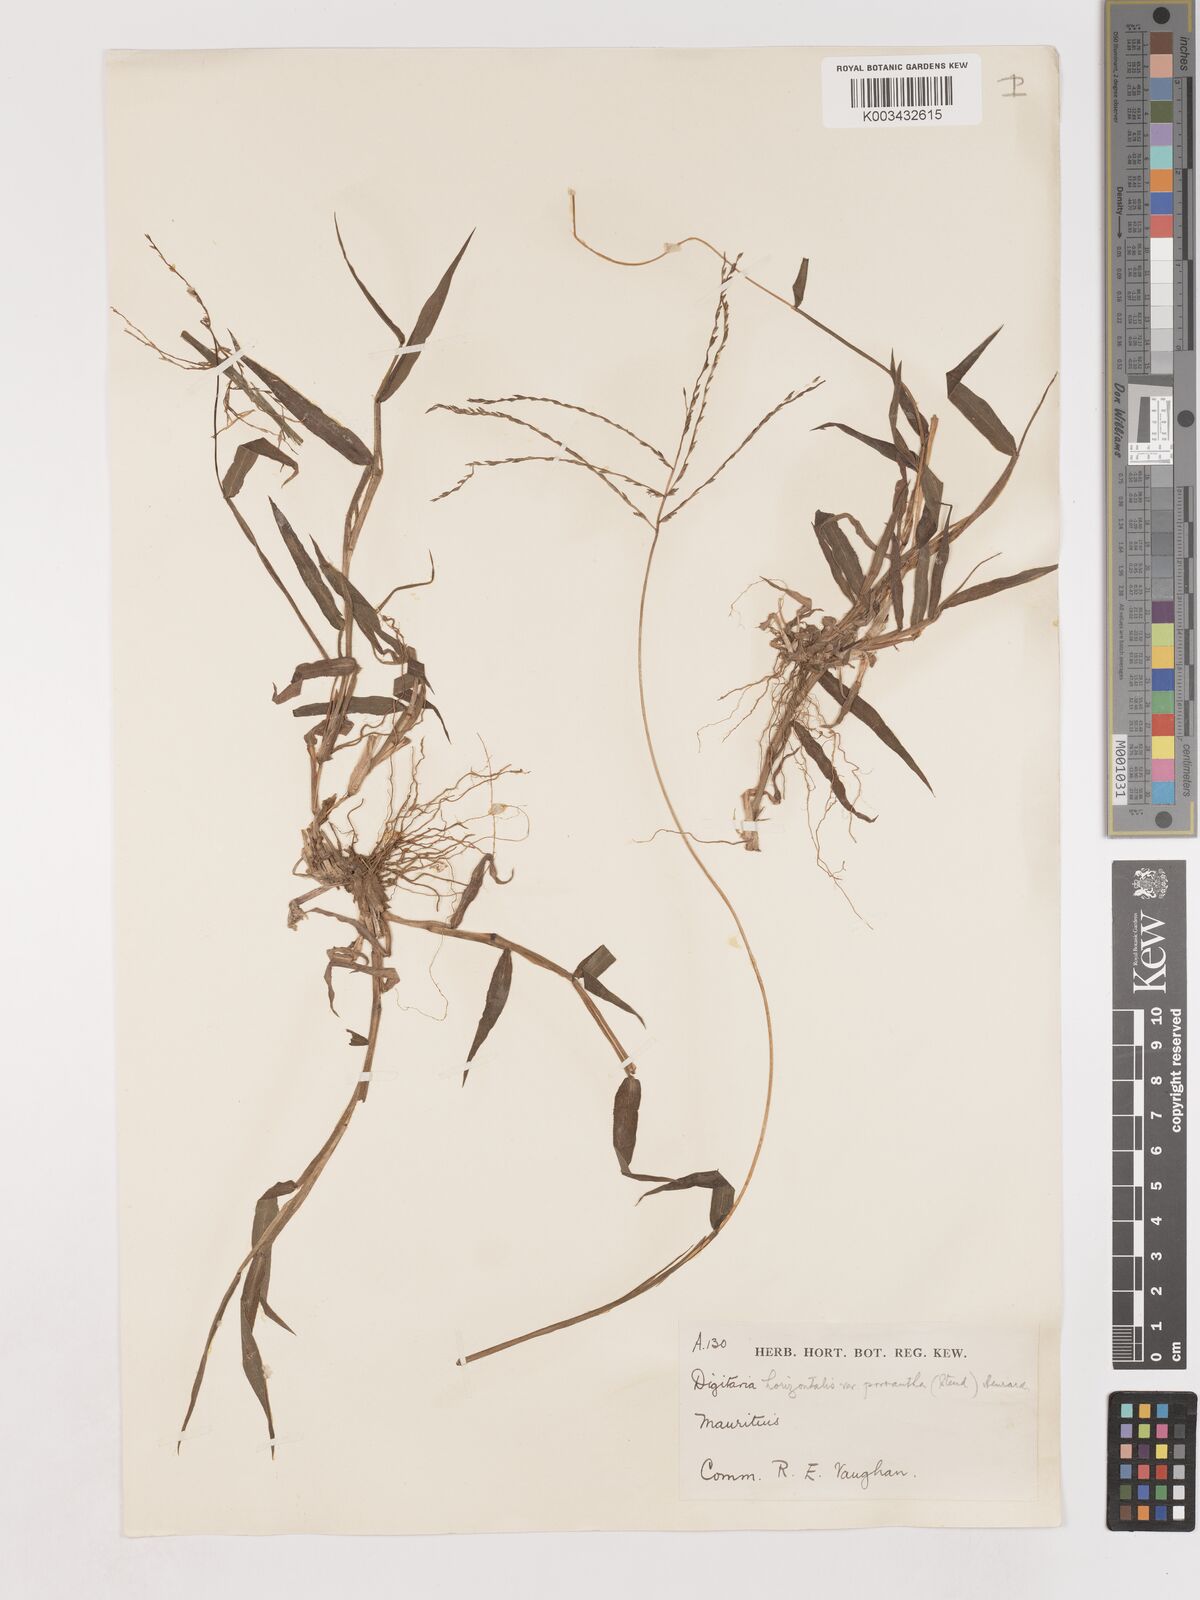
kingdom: Plantae
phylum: Tracheophyta
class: Liliopsida
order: Poales
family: Poaceae
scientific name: Poaceae
